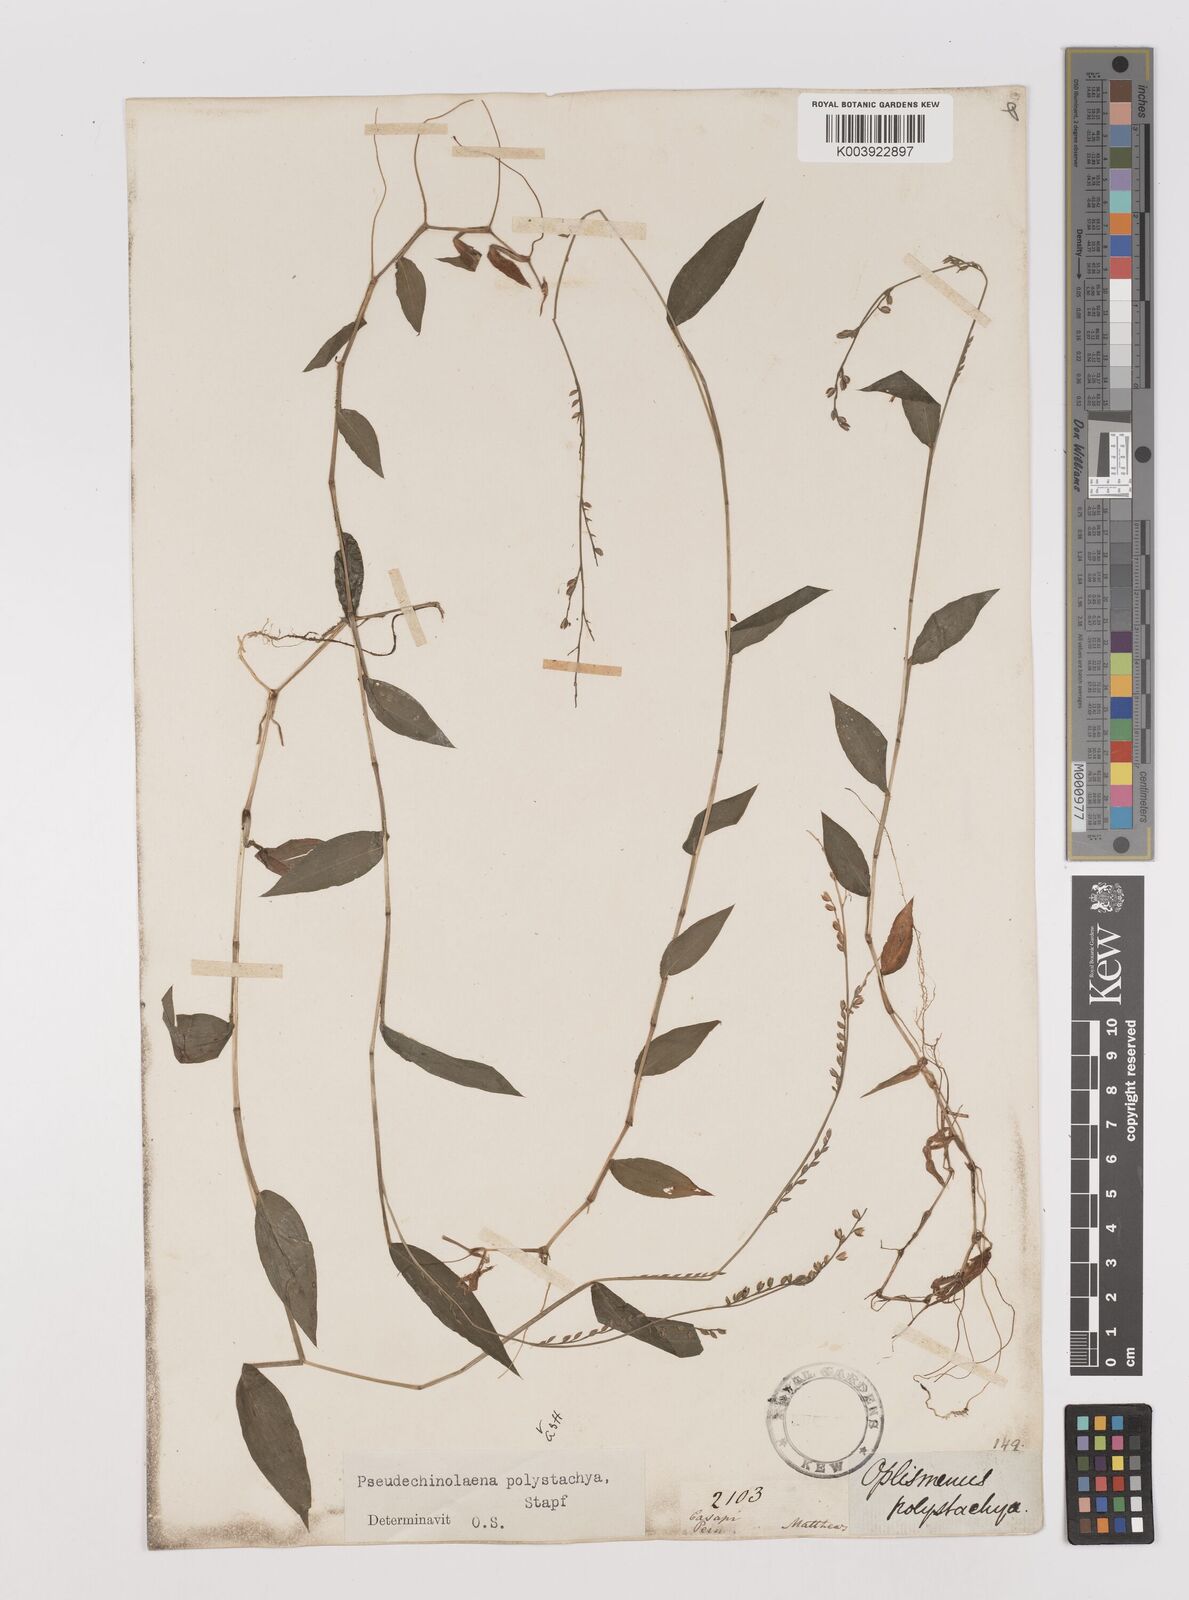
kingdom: Plantae
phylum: Tracheophyta
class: Liliopsida
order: Poales
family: Poaceae
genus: Pseudechinolaena
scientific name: Pseudechinolaena polystachya
